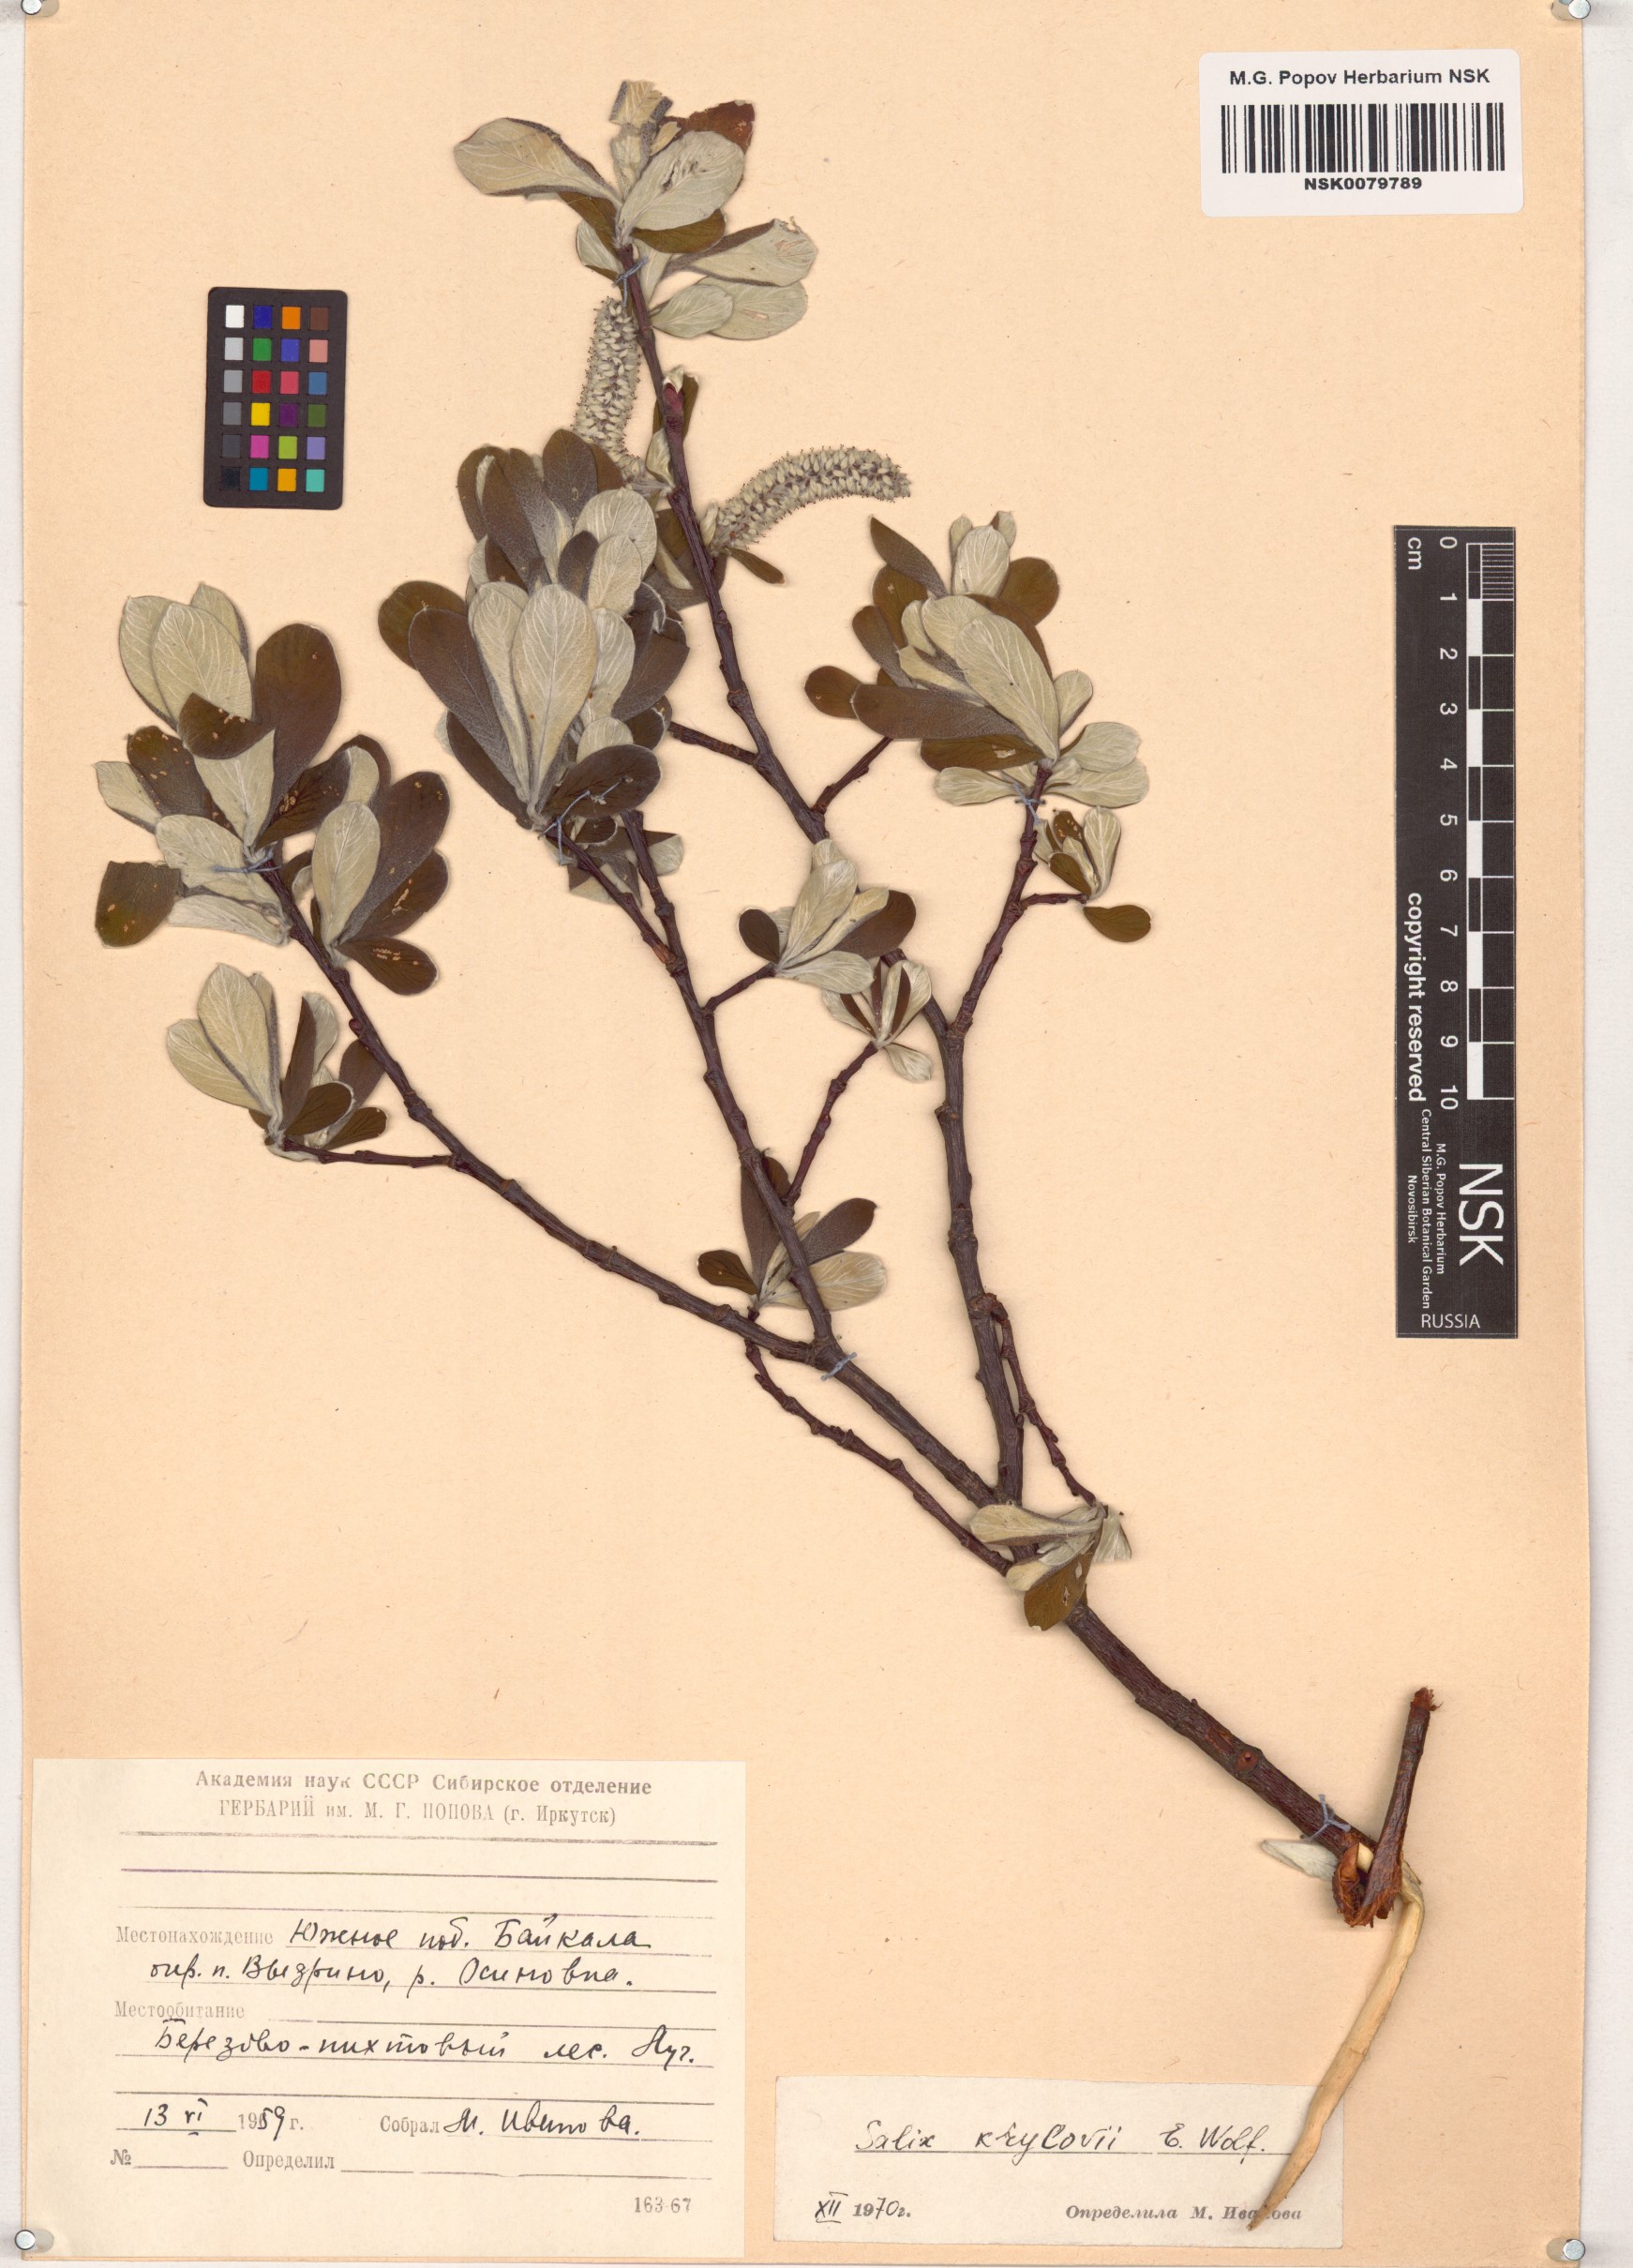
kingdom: Plantae
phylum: Tracheophyta
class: Magnoliopsida
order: Malpighiales
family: Salicaceae
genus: Salix
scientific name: Salix krylovii
